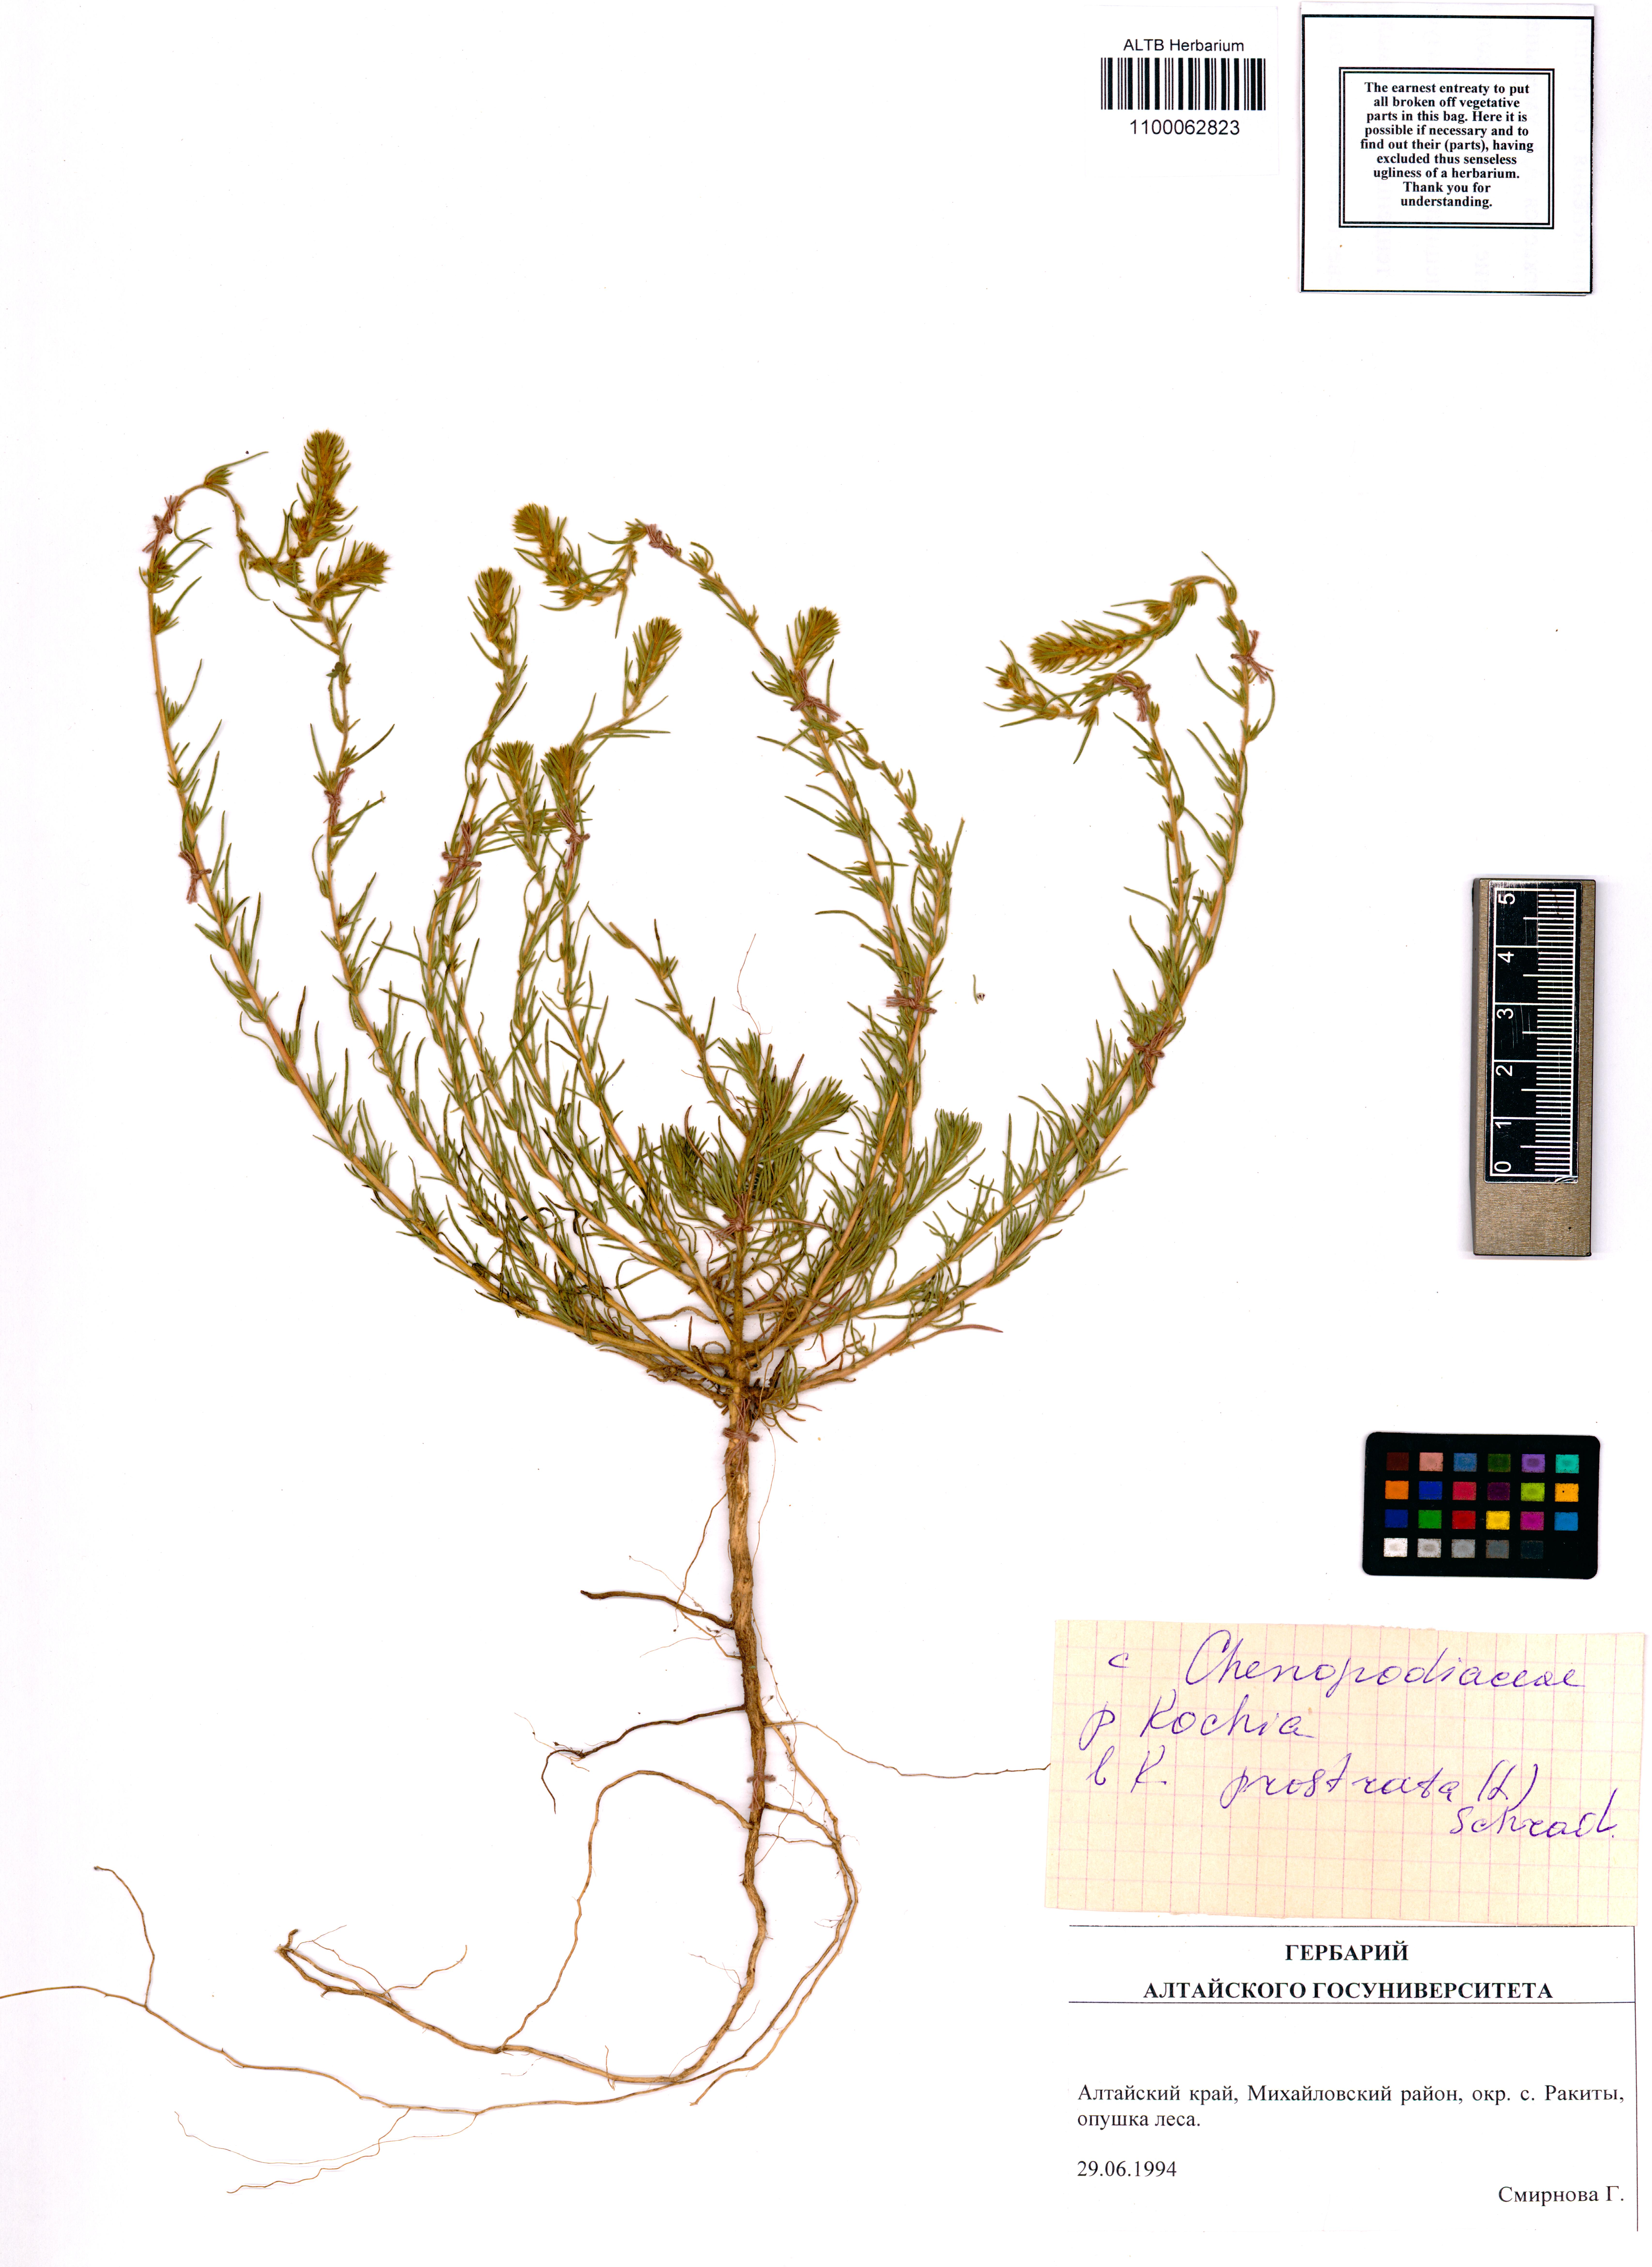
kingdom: Plantae
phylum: Tracheophyta
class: Magnoliopsida
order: Caryophyllales
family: Amaranthaceae
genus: Bassia
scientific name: Bassia prostrata
